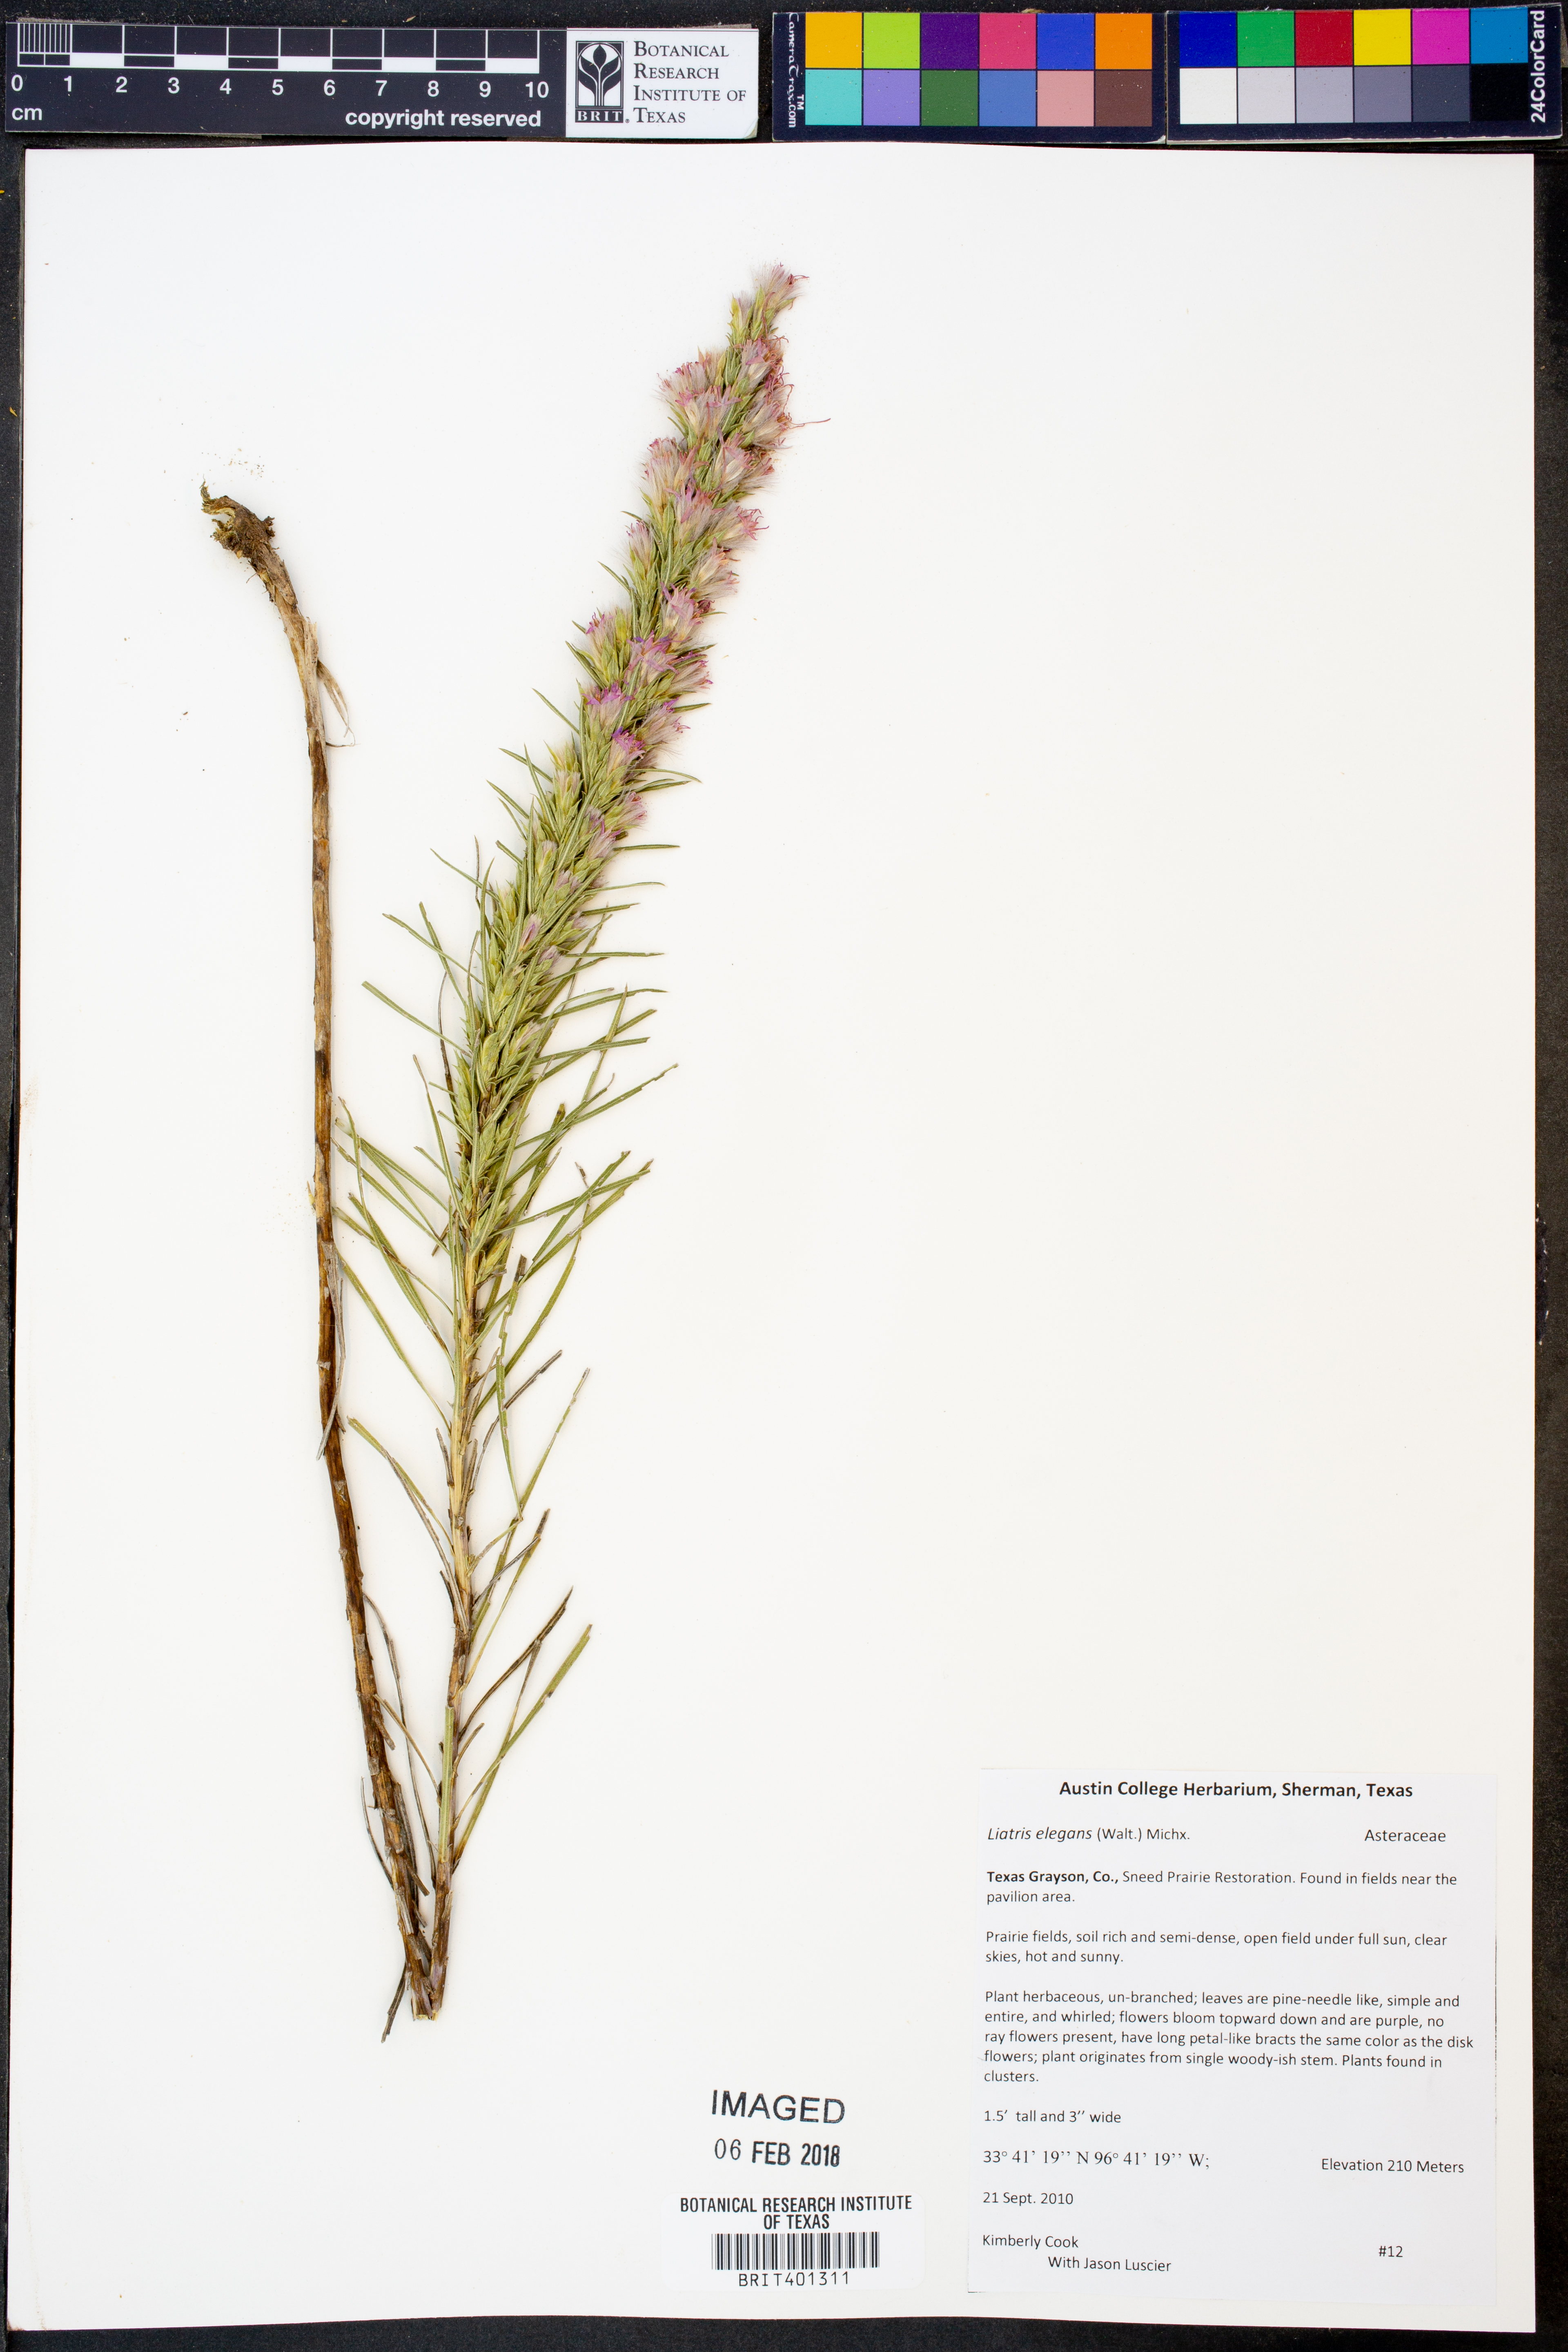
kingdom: Plantae
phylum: Tracheophyta
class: Magnoliopsida
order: Asterales
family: Asteraceae
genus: Liatris
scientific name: Liatris elegans
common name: Pinkscale gayfeather
